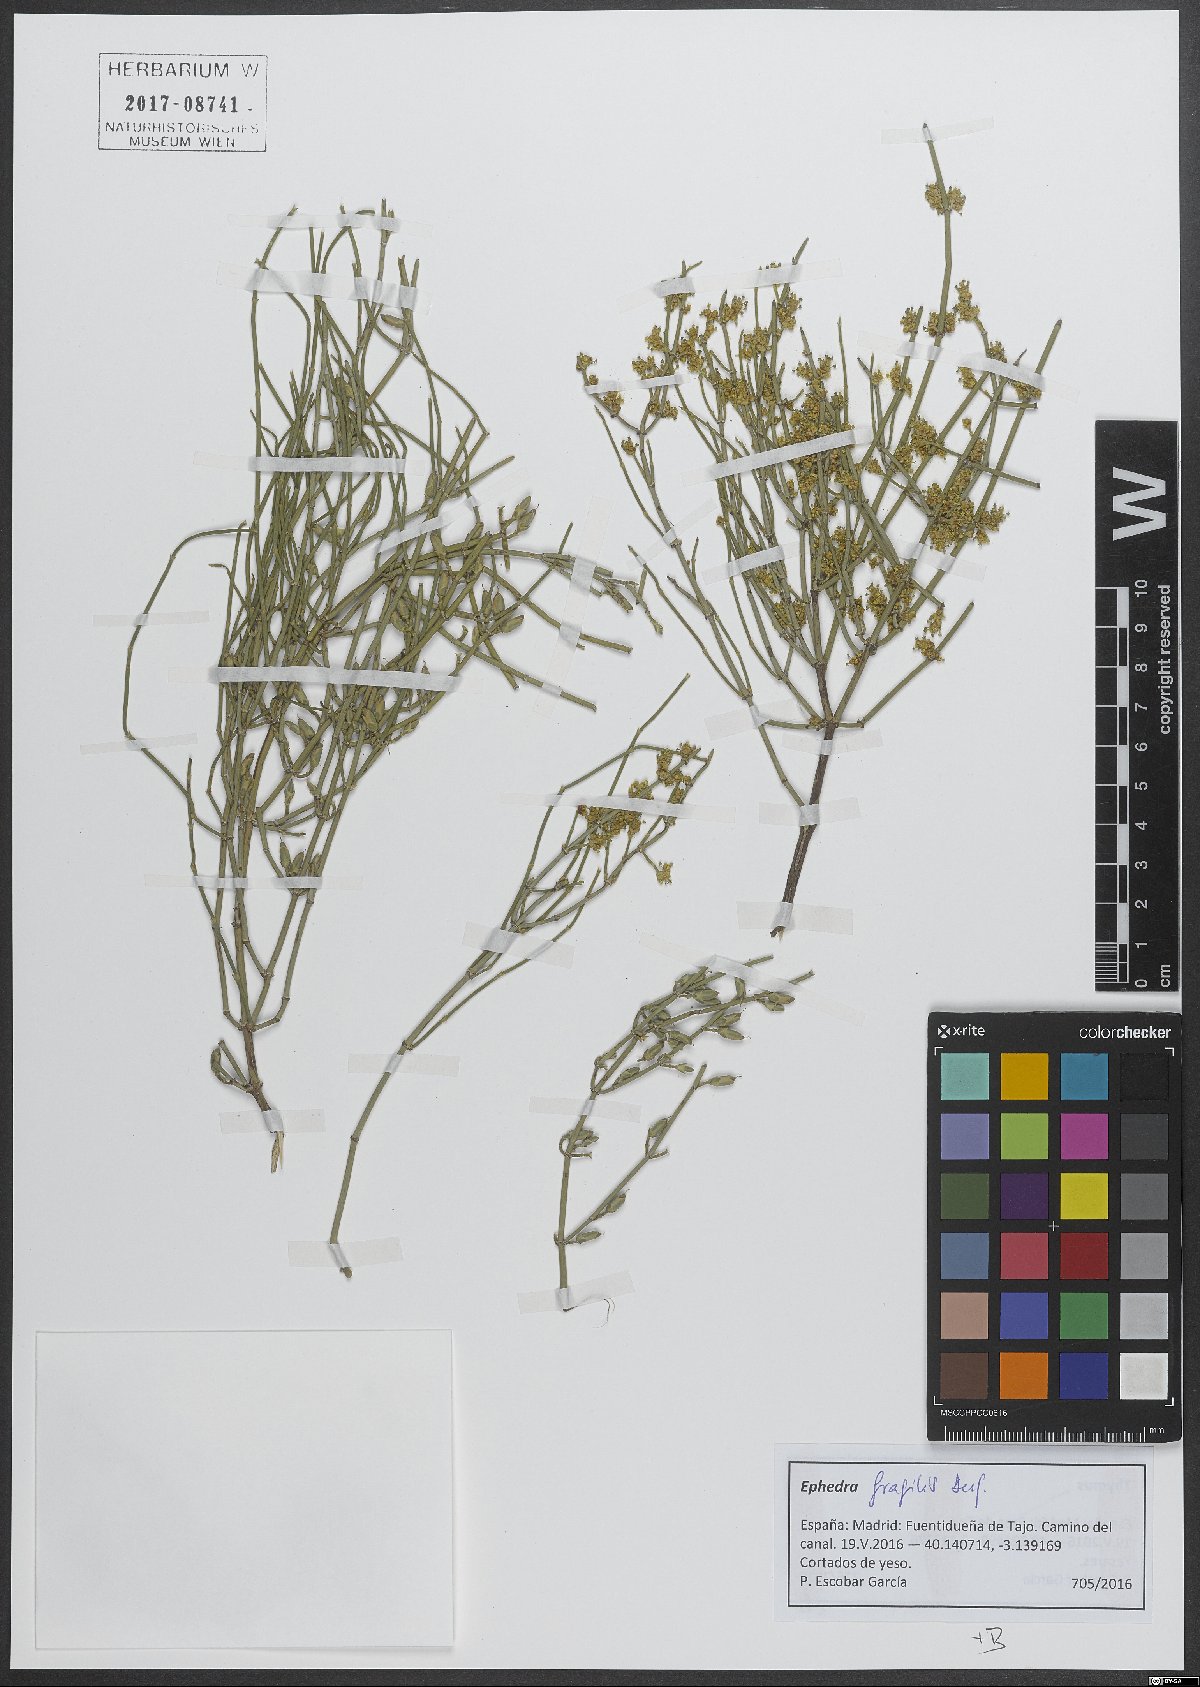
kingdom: Plantae
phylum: Tracheophyta
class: Gnetopsida
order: Ephedrales
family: Ephedraceae
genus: Ephedra
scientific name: Ephedra fragilis
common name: Joint pine
